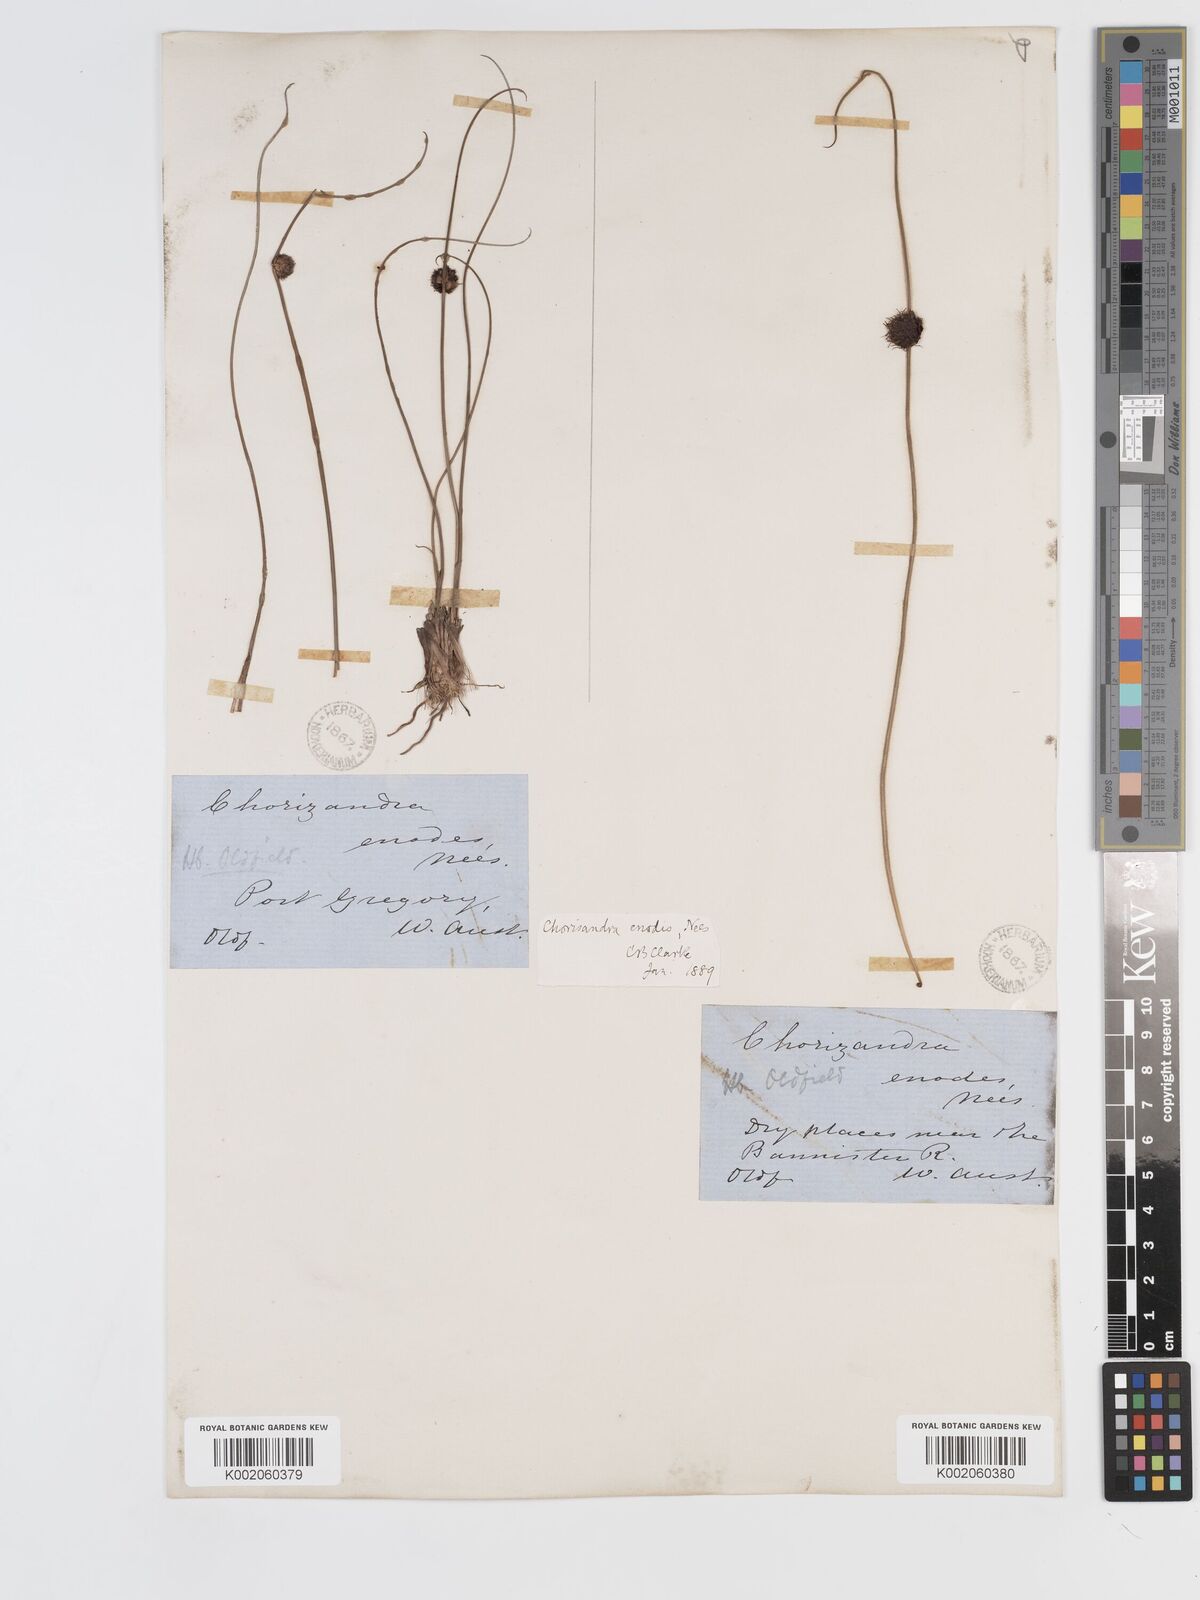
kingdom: Plantae
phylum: Tracheophyta
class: Liliopsida
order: Poales
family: Cyperaceae
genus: Chorizandra
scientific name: Chorizandra enodis
